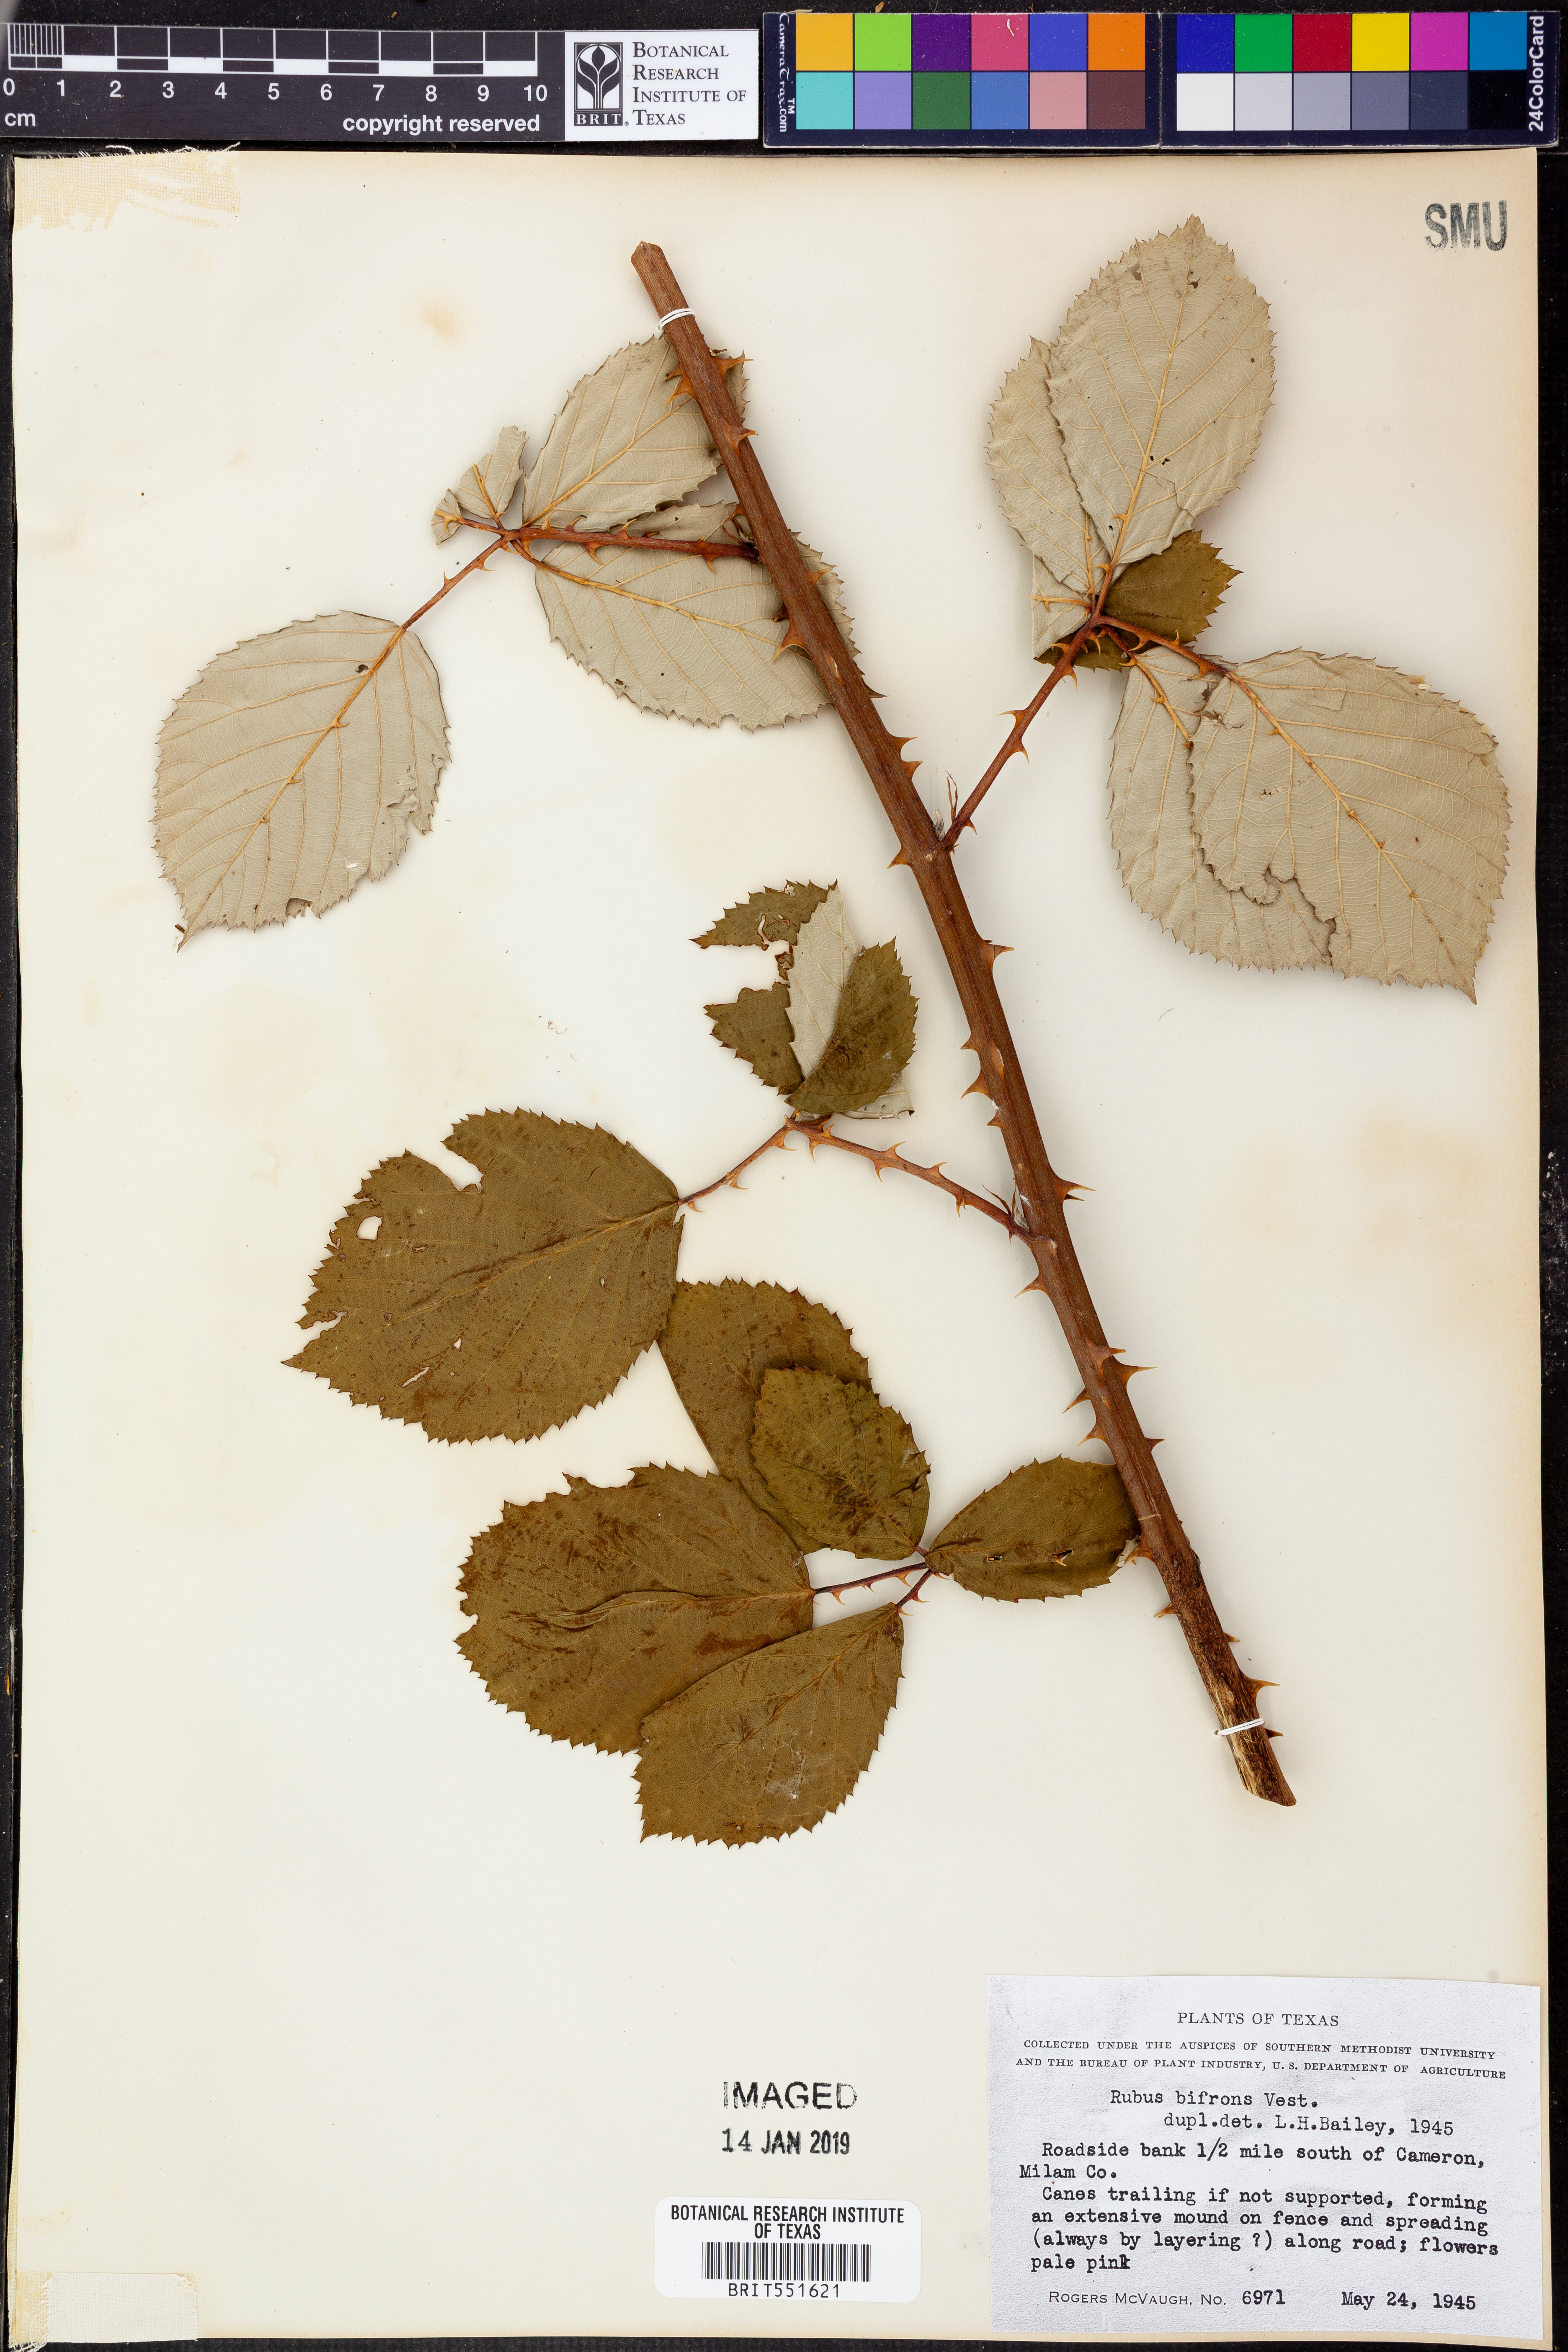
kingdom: Plantae
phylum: Tracheophyta
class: Magnoliopsida
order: Rosales
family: Rosaceae
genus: Rubus
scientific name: Rubus bifrons
